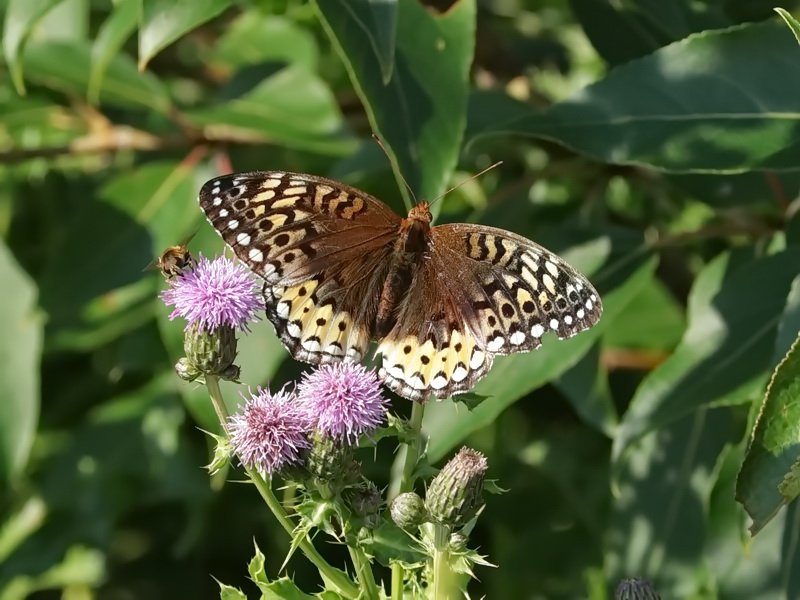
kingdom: Animalia
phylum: Arthropoda
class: Insecta
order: Lepidoptera
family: Nymphalidae
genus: Speyeria
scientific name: Speyeria cybele
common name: Great Spangled Fritillary
